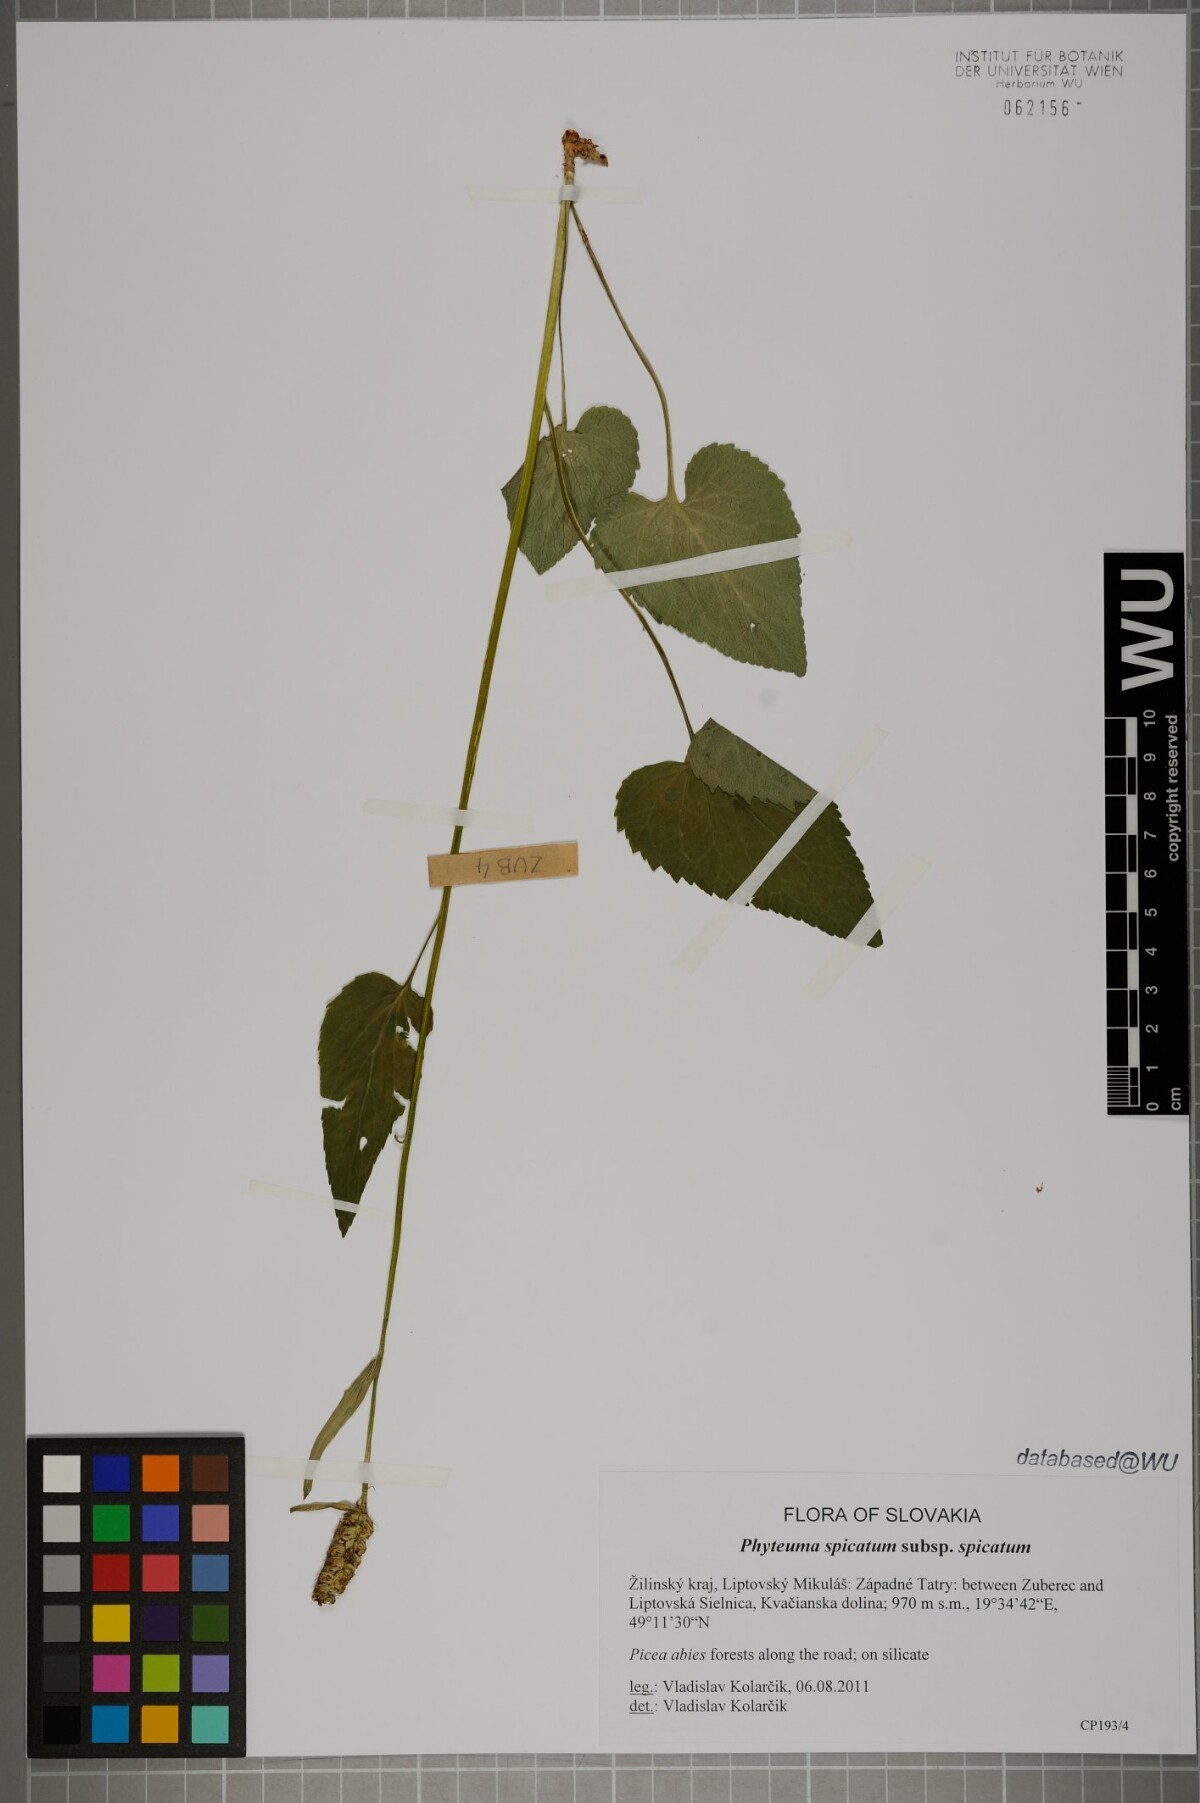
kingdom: Plantae
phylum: Tracheophyta
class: Magnoliopsida
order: Asterales
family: Campanulaceae
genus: Phyteuma
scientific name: Phyteuma spicatum
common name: Spiked rampion
